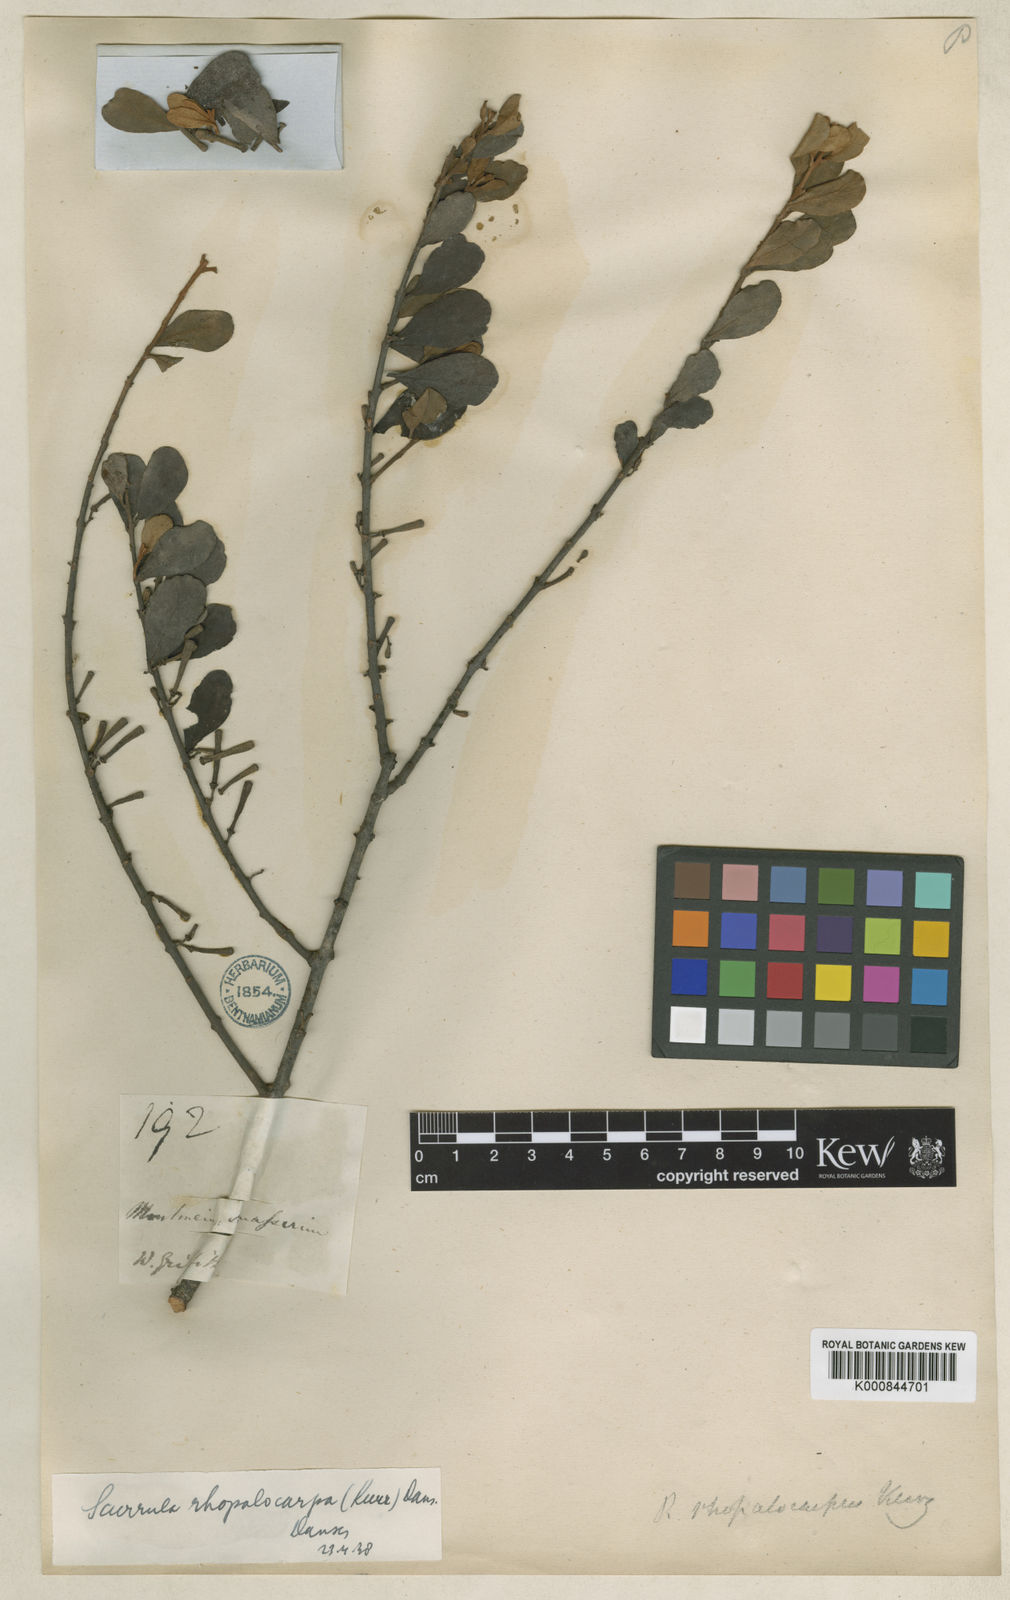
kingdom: Plantae
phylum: Tracheophyta
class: Magnoliopsida
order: Santalales
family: Loranthaceae
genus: Scurrula
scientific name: Scurrula rhopalocarpa
